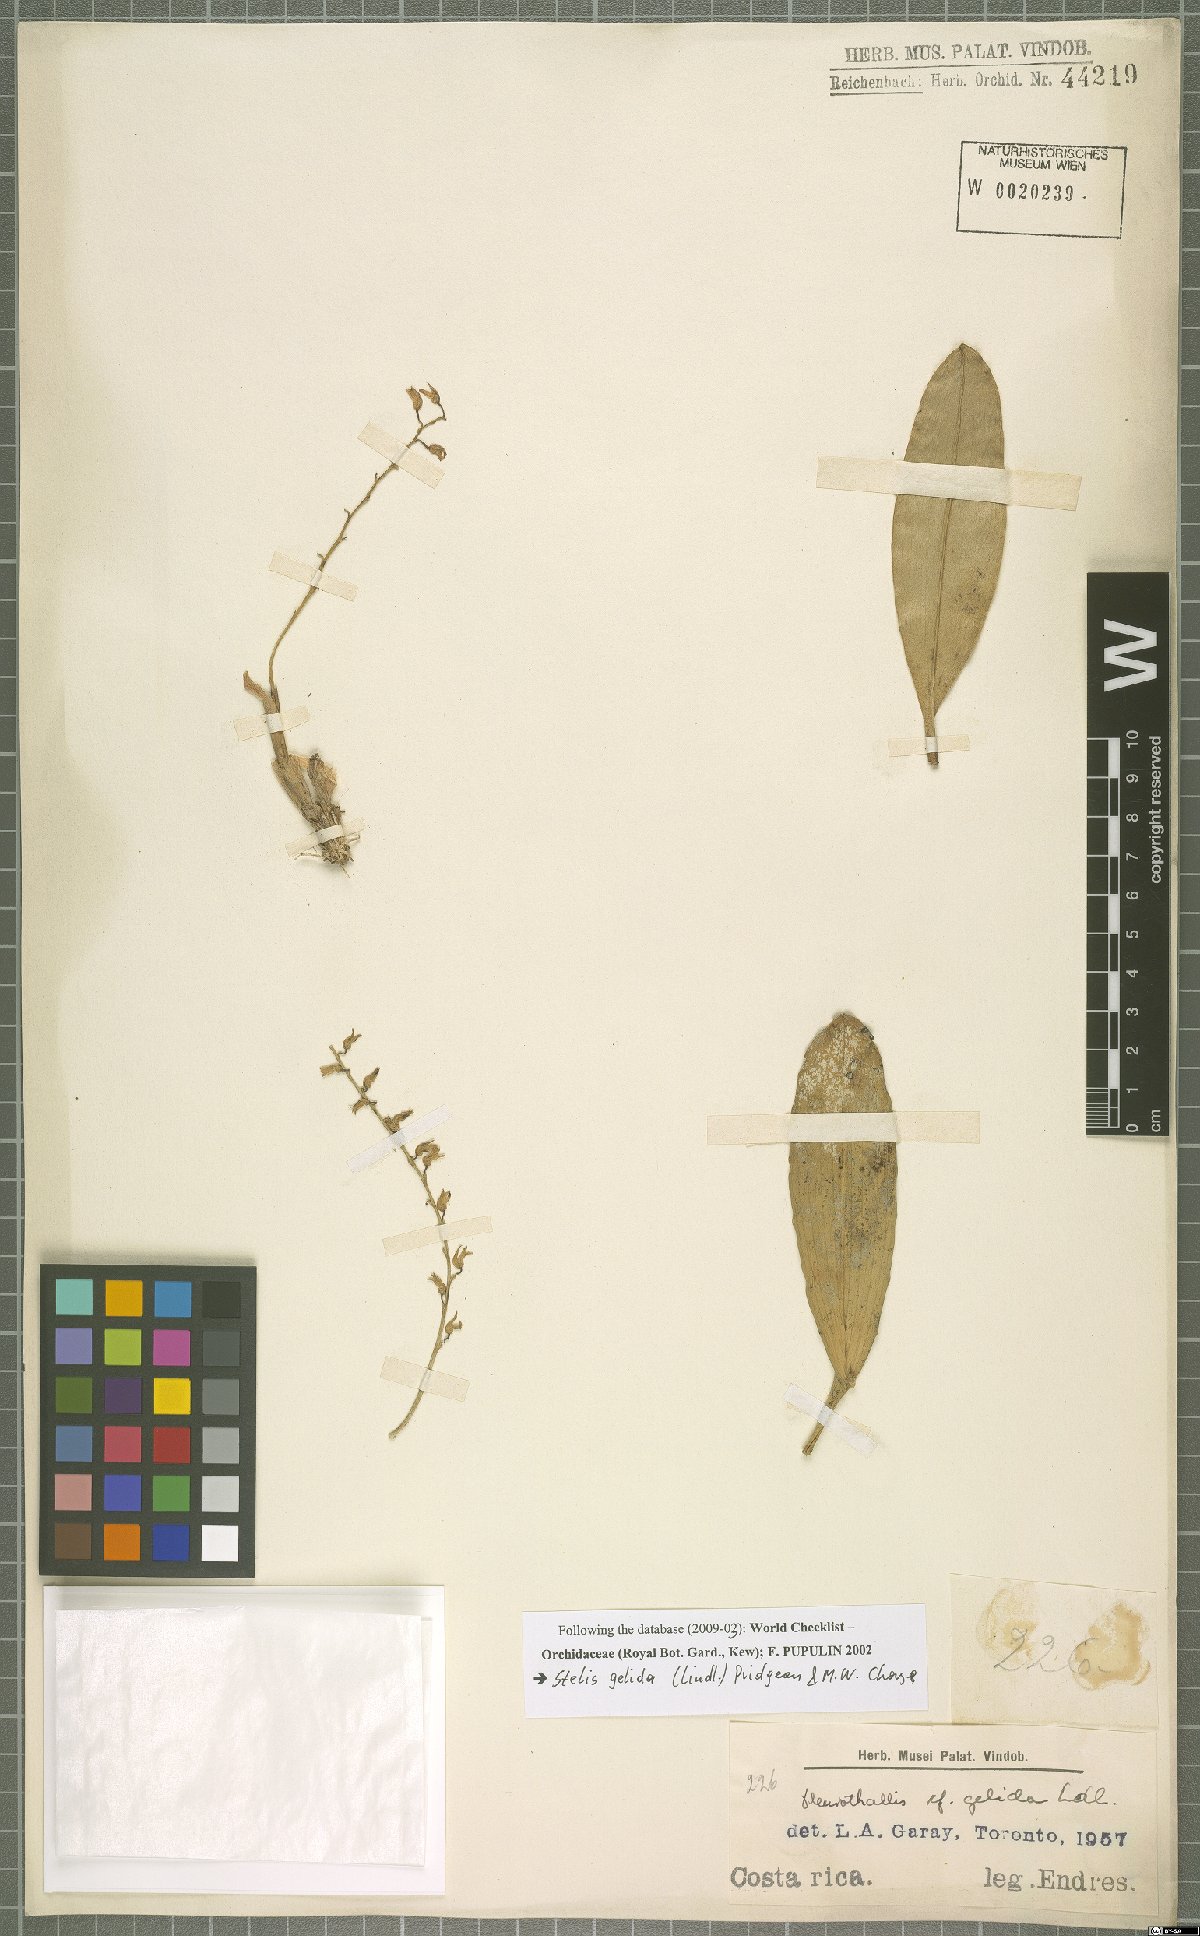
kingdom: Plantae
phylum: Tracheophyta
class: Liliopsida
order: Asparagales
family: Orchidaceae
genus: Stelis
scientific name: Stelis gelida
